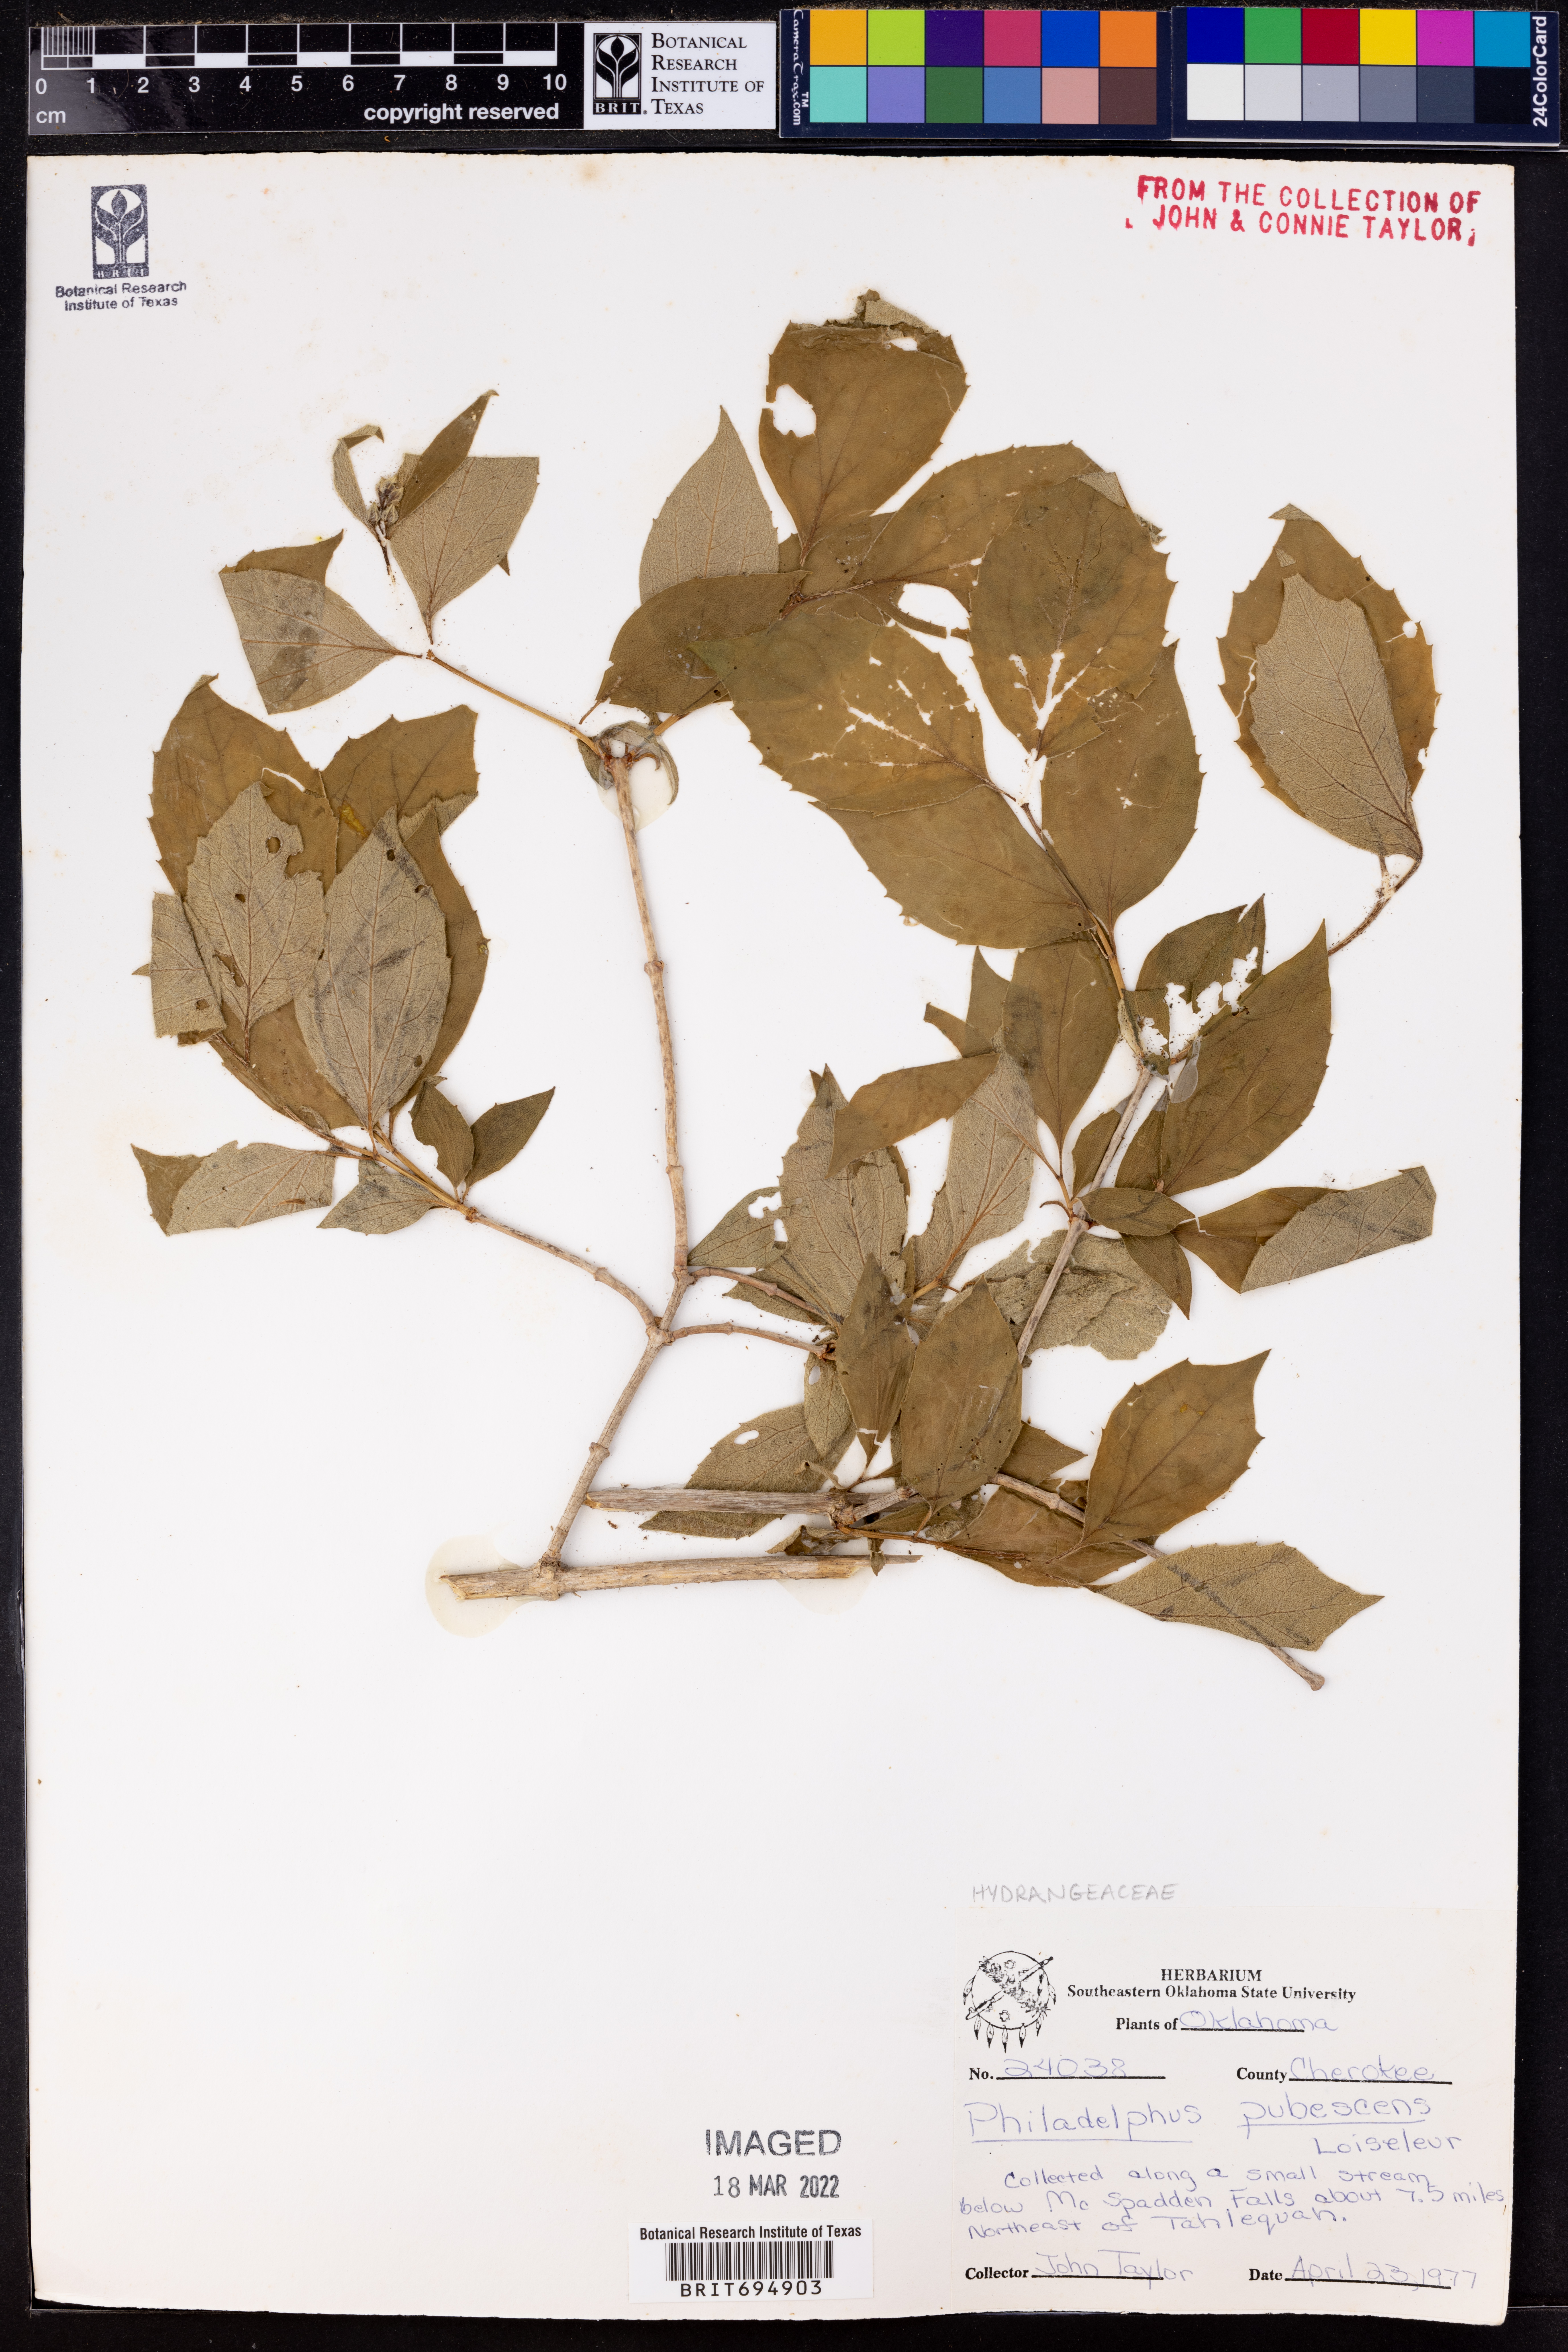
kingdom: Plantae
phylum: Tracheophyta
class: Magnoliopsida
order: Cornales
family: Hydrangeaceae
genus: Philadelphus
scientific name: Philadelphus pubescens
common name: Broadleaf mock orange
